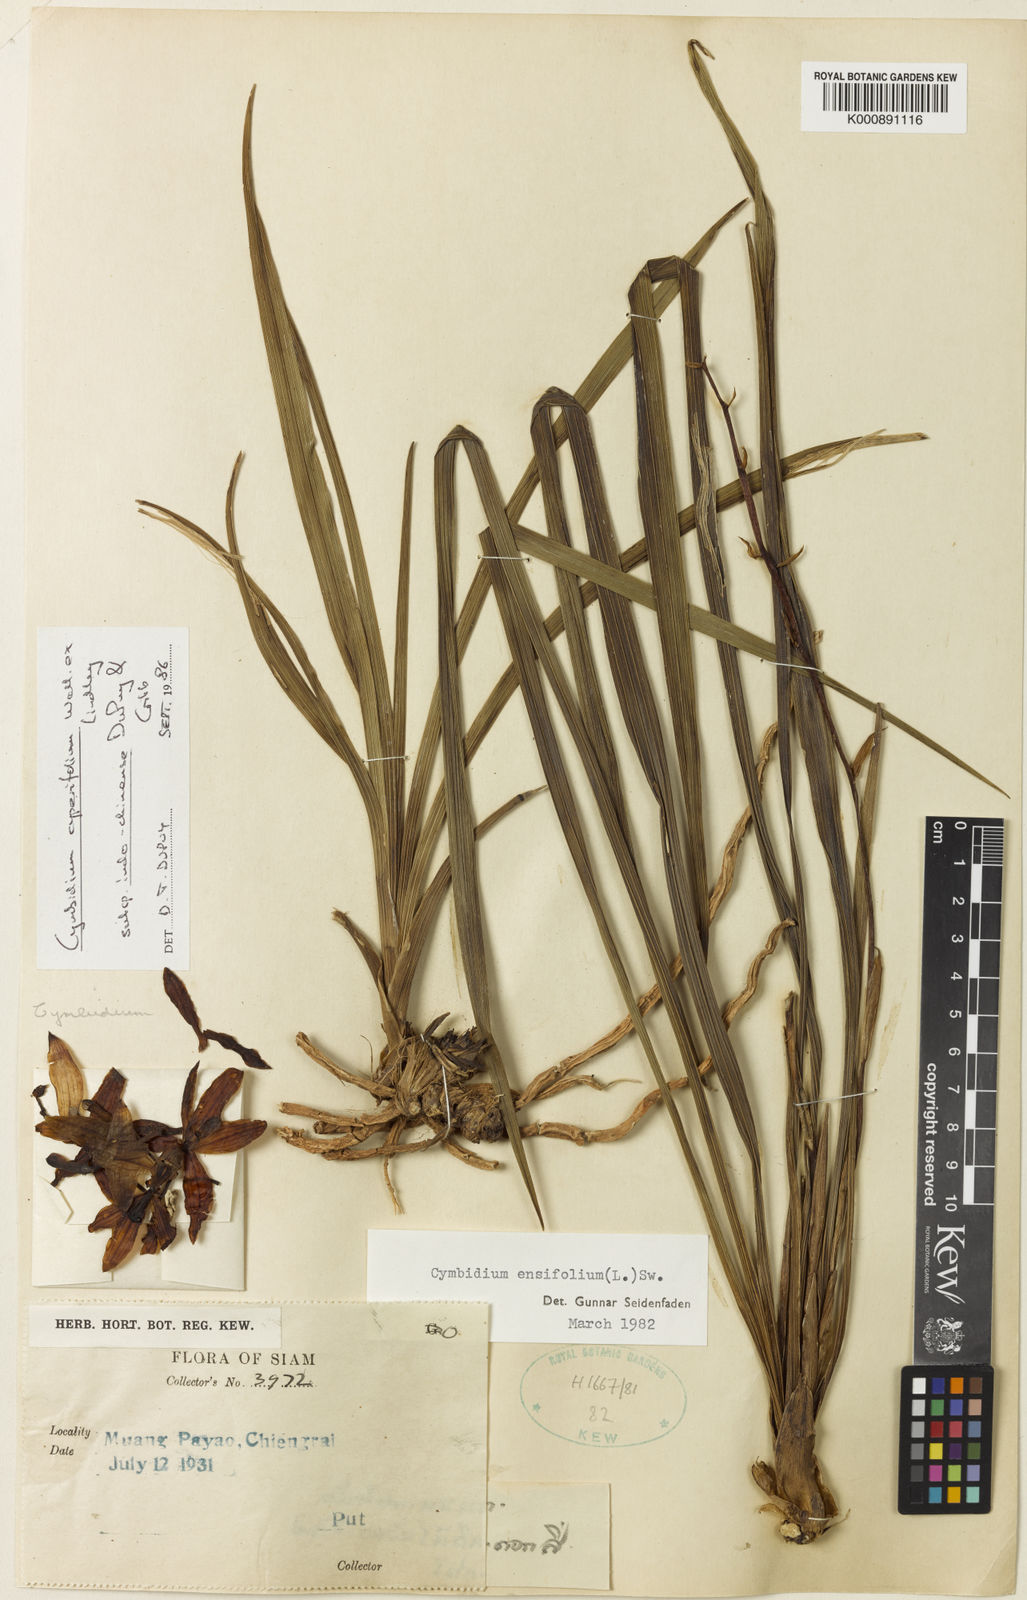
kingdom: Plantae
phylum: Tracheophyta
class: Liliopsida
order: Asparagales
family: Orchidaceae
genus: Cymbidium
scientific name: Cymbidium cyperifolium
